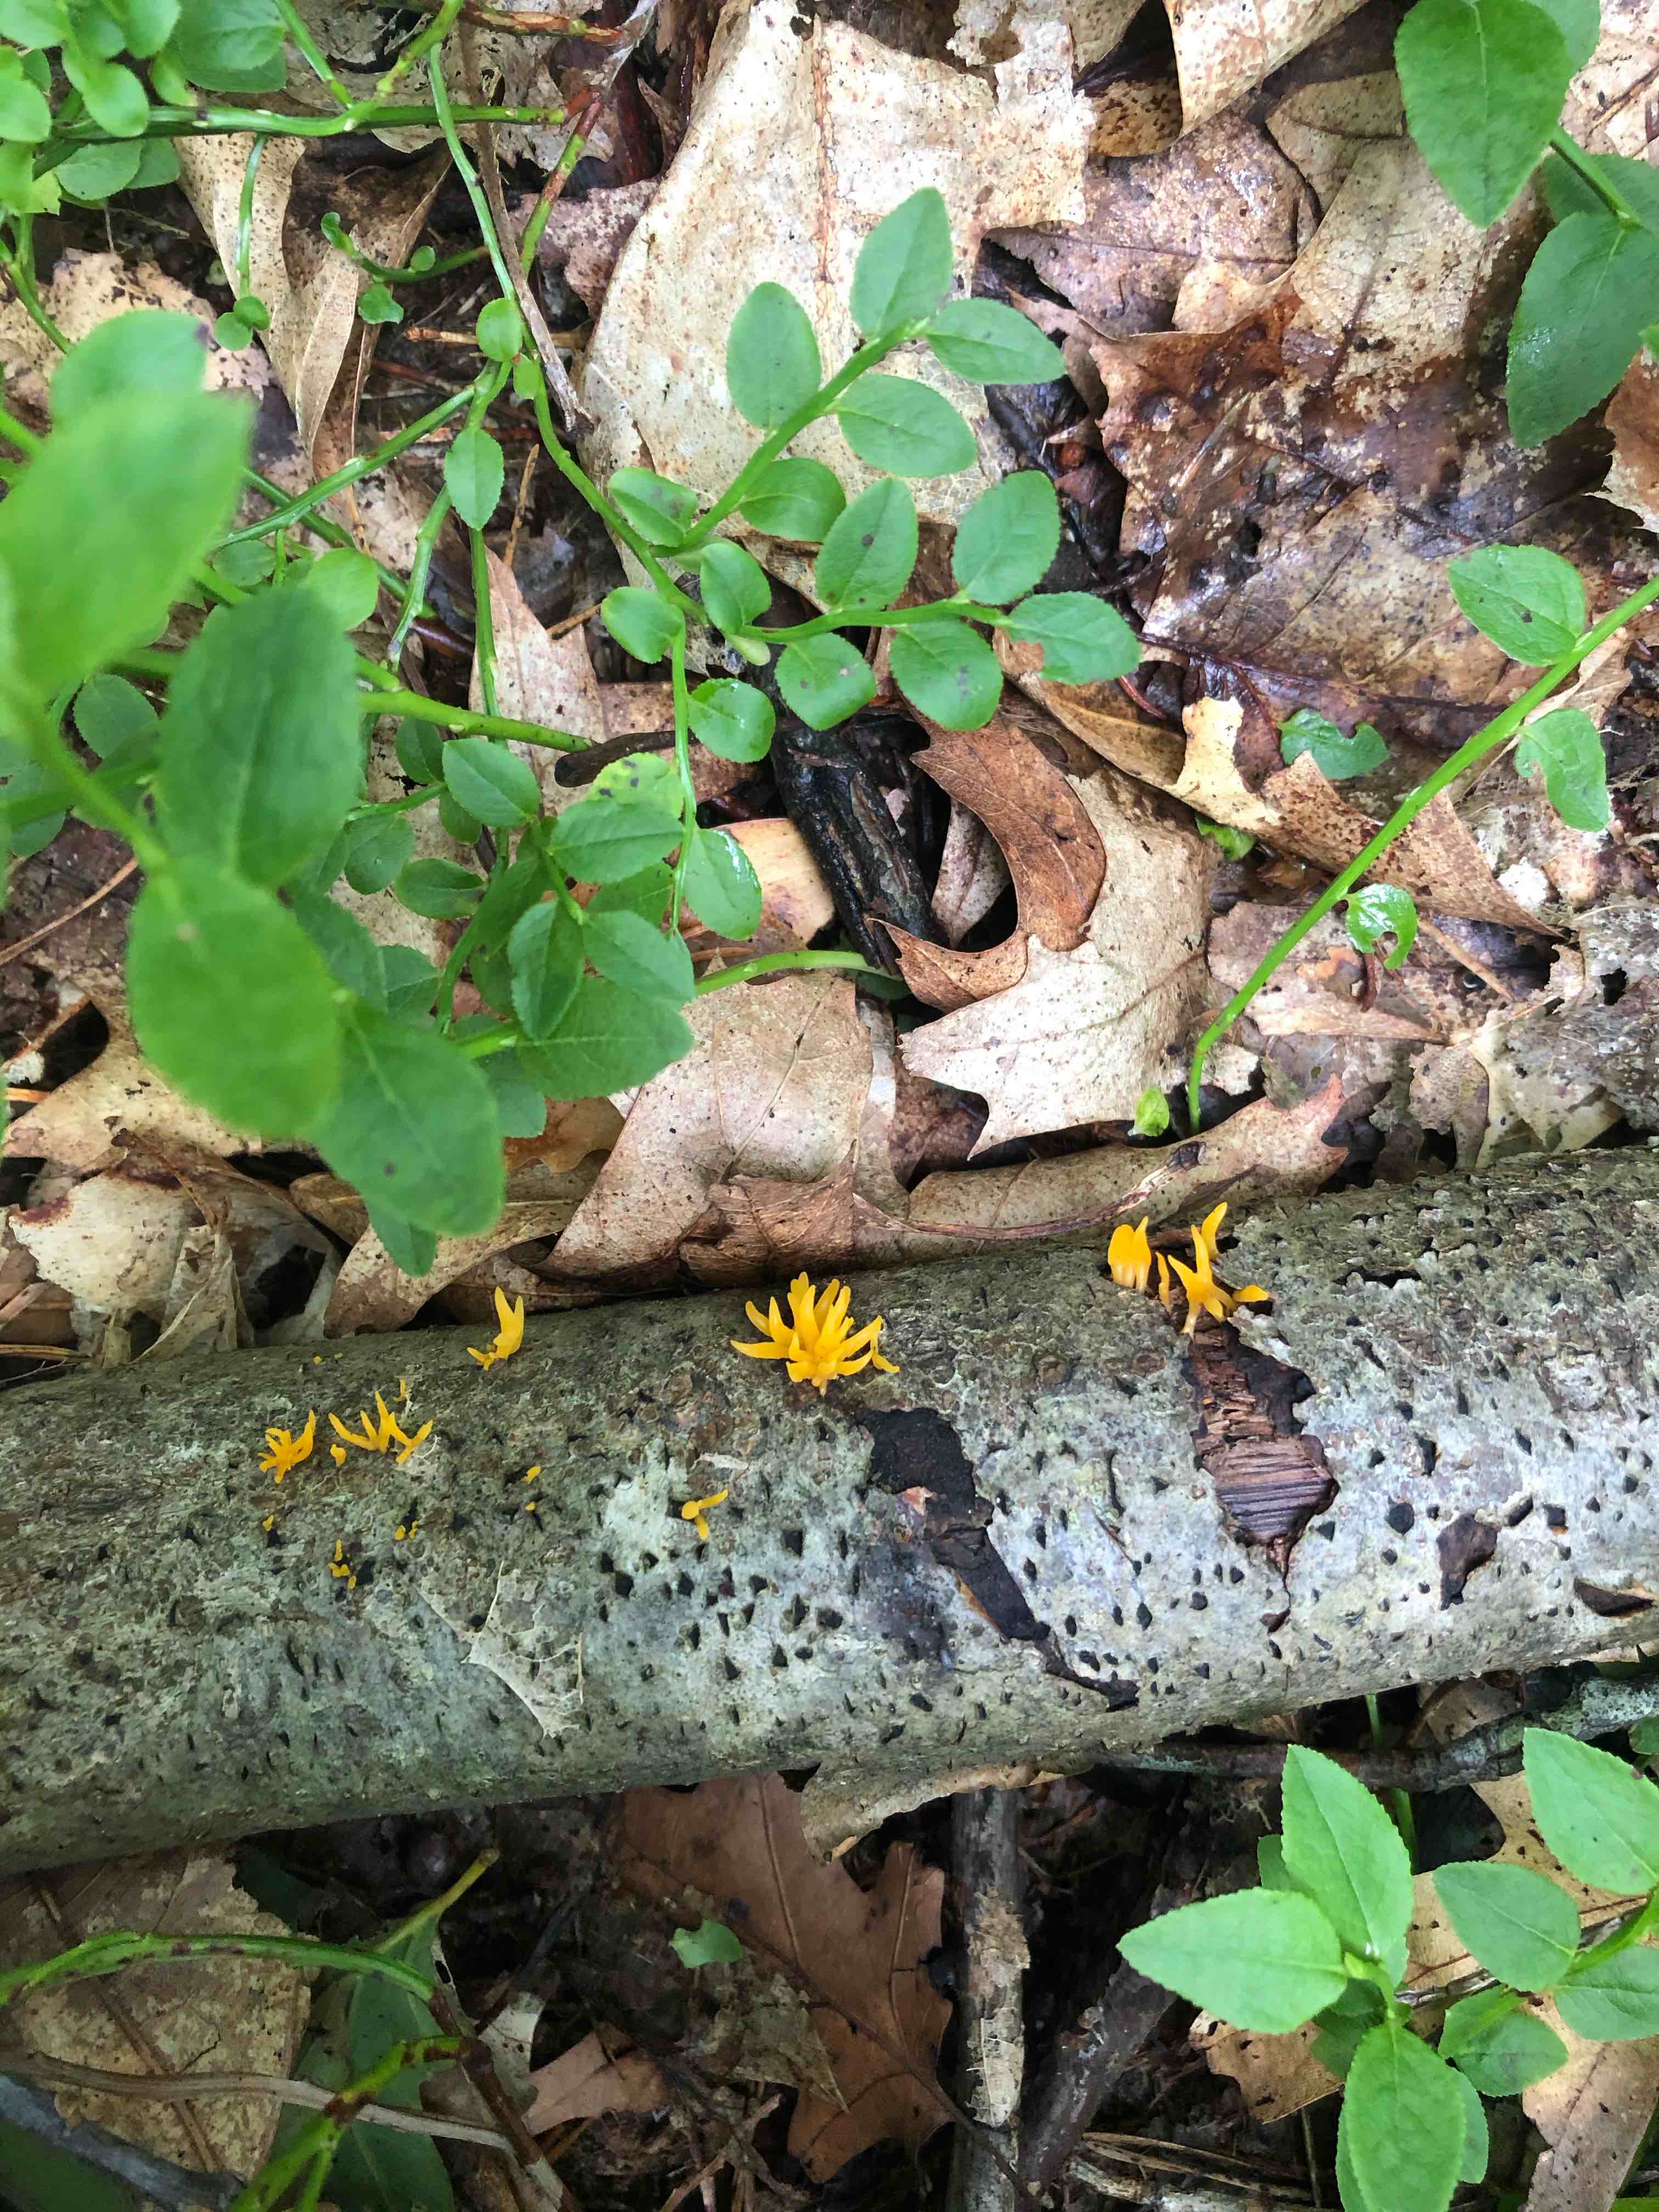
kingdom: Fungi
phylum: Basidiomycota
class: Dacrymycetes
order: Dacrymycetales
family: Dacrymycetaceae
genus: Calocera
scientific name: Calocera cornea
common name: liden guldgaffel
